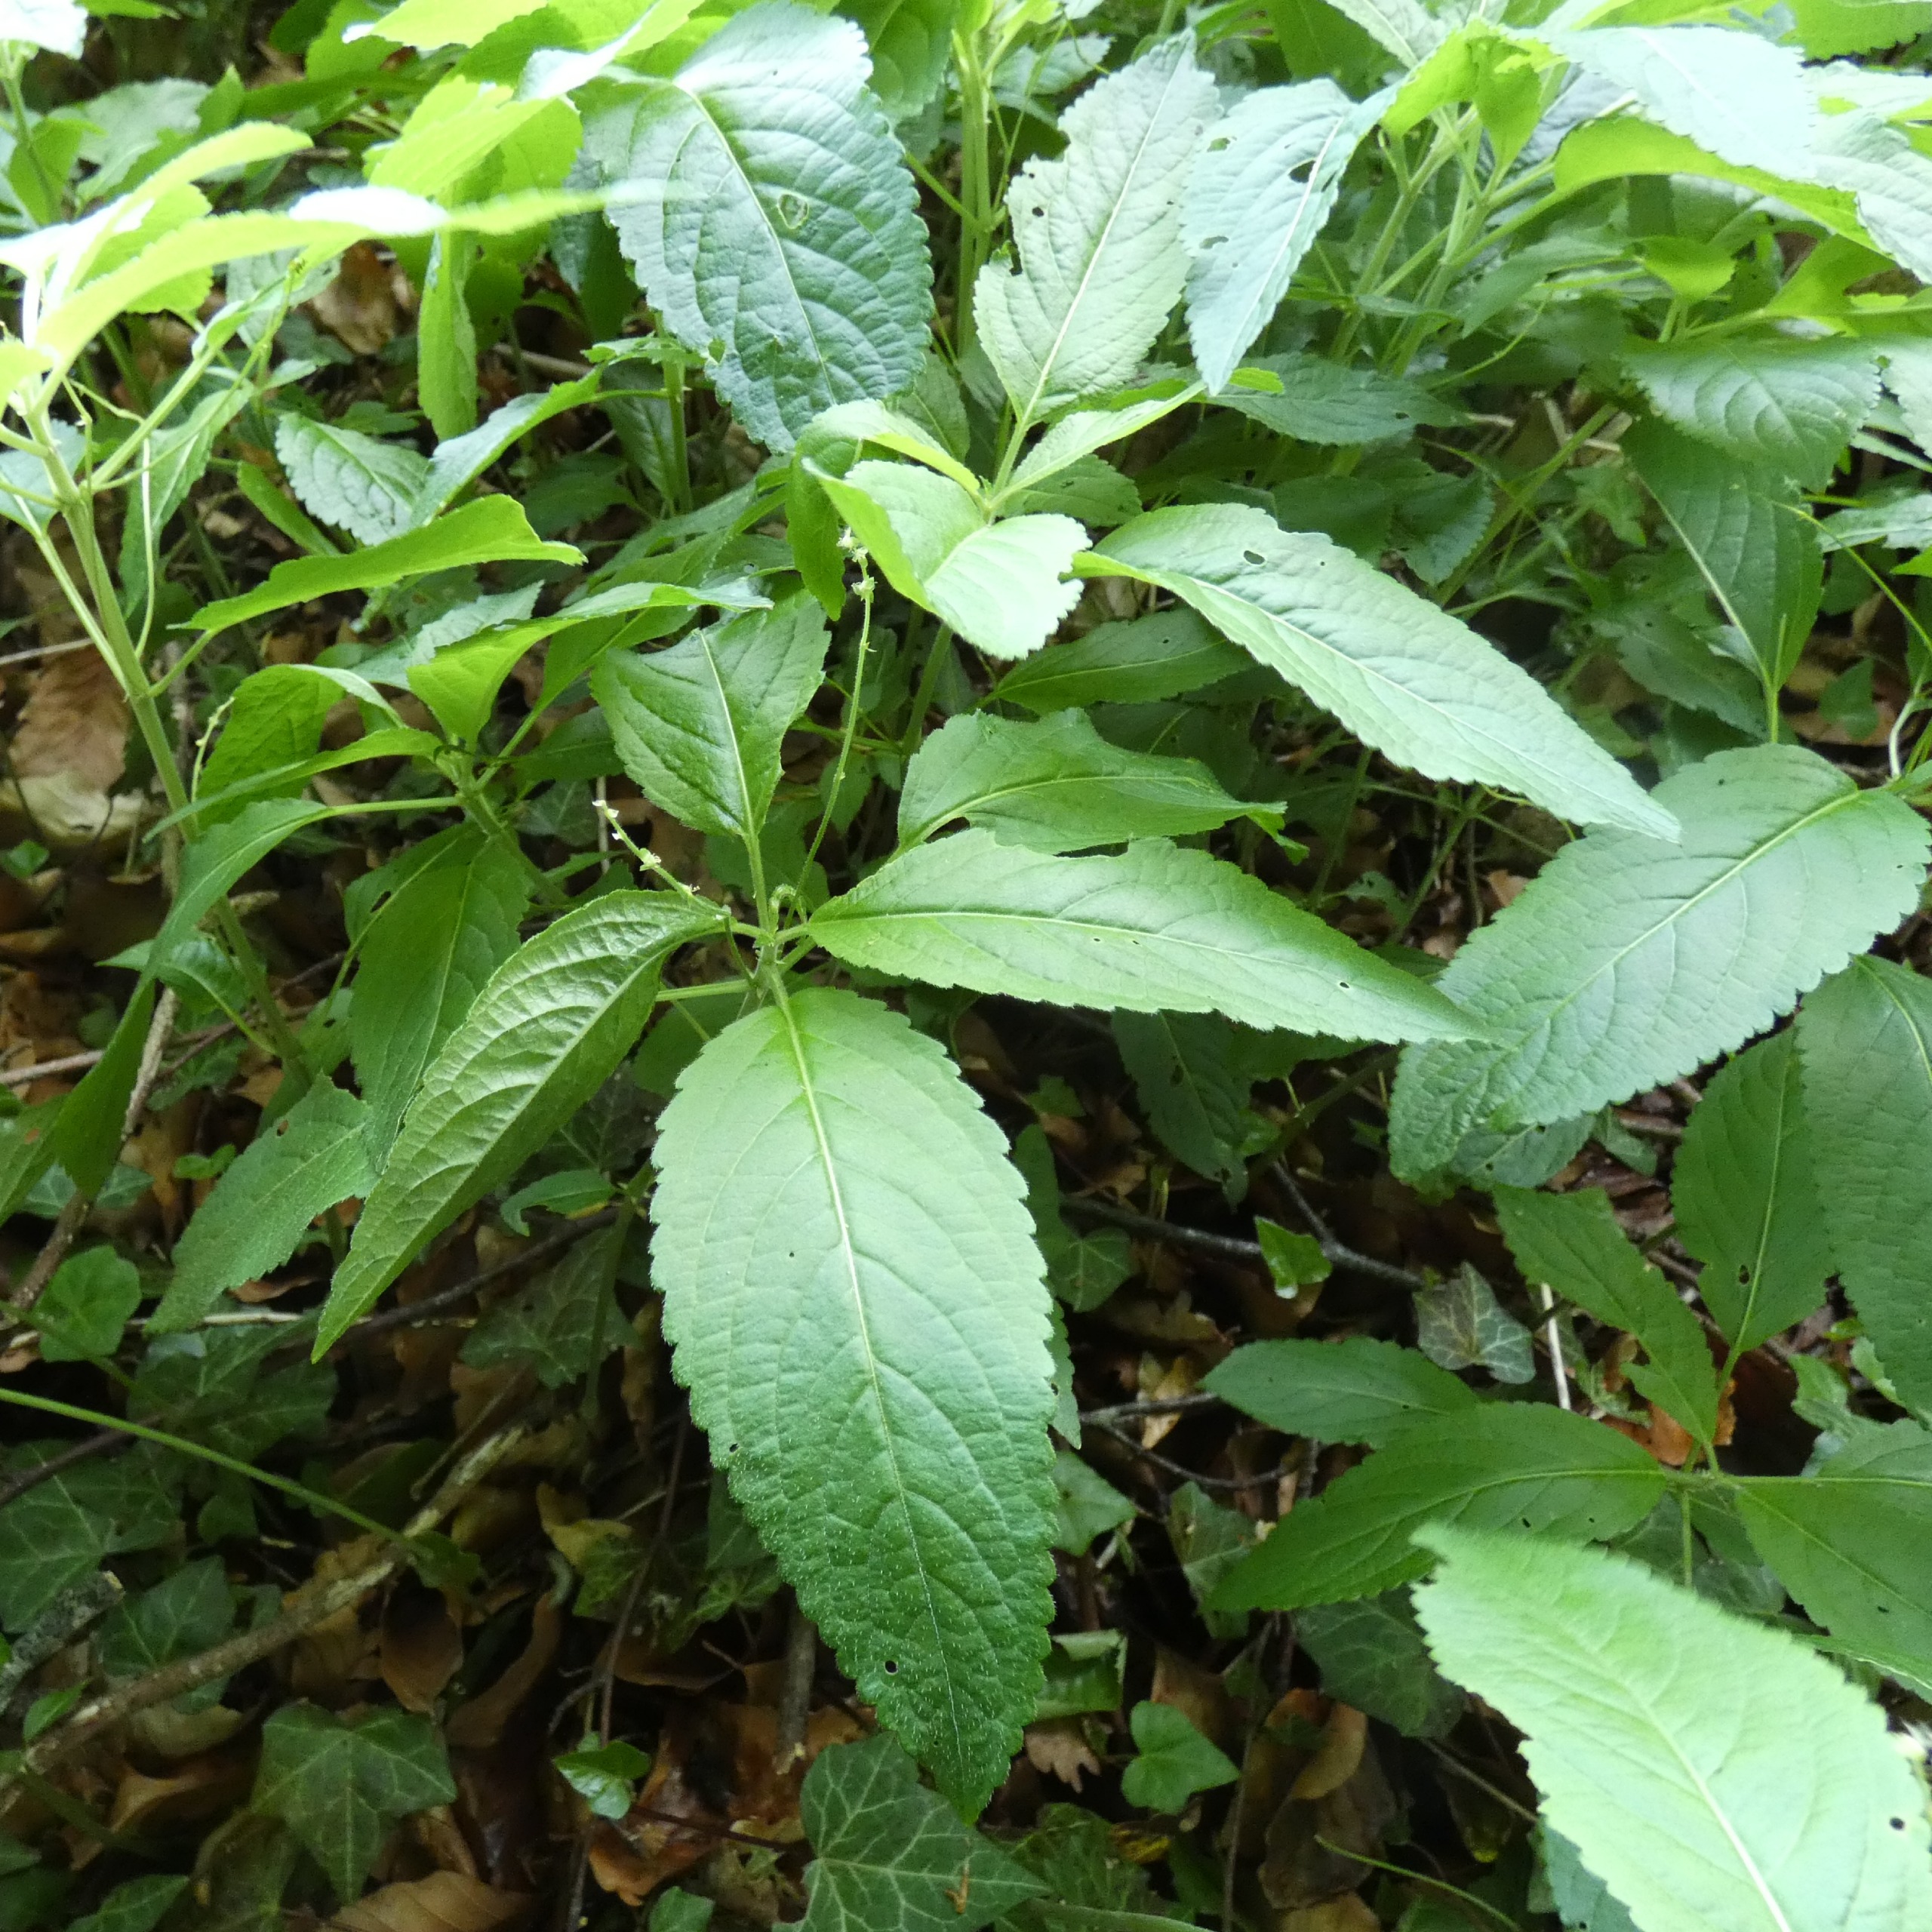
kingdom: Plantae
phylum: Tracheophyta
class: Magnoliopsida
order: Malpighiales
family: Euphorbiaceae
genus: Mercurialis
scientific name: Mercurialis perennis
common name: Almindelig bingelurt
